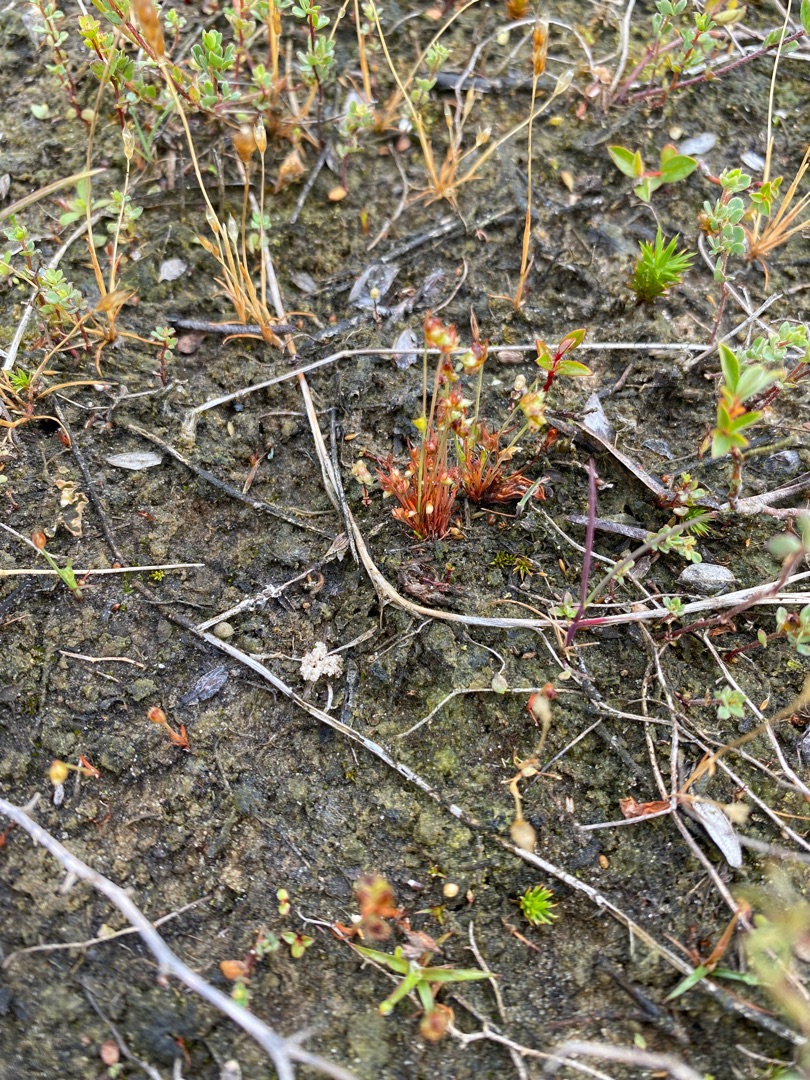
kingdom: Plantae
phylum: Tracheophyta
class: Liliopsida
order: Poales
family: Juncaceae
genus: Juncus
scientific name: Juncus capitatus
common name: Fin siv
